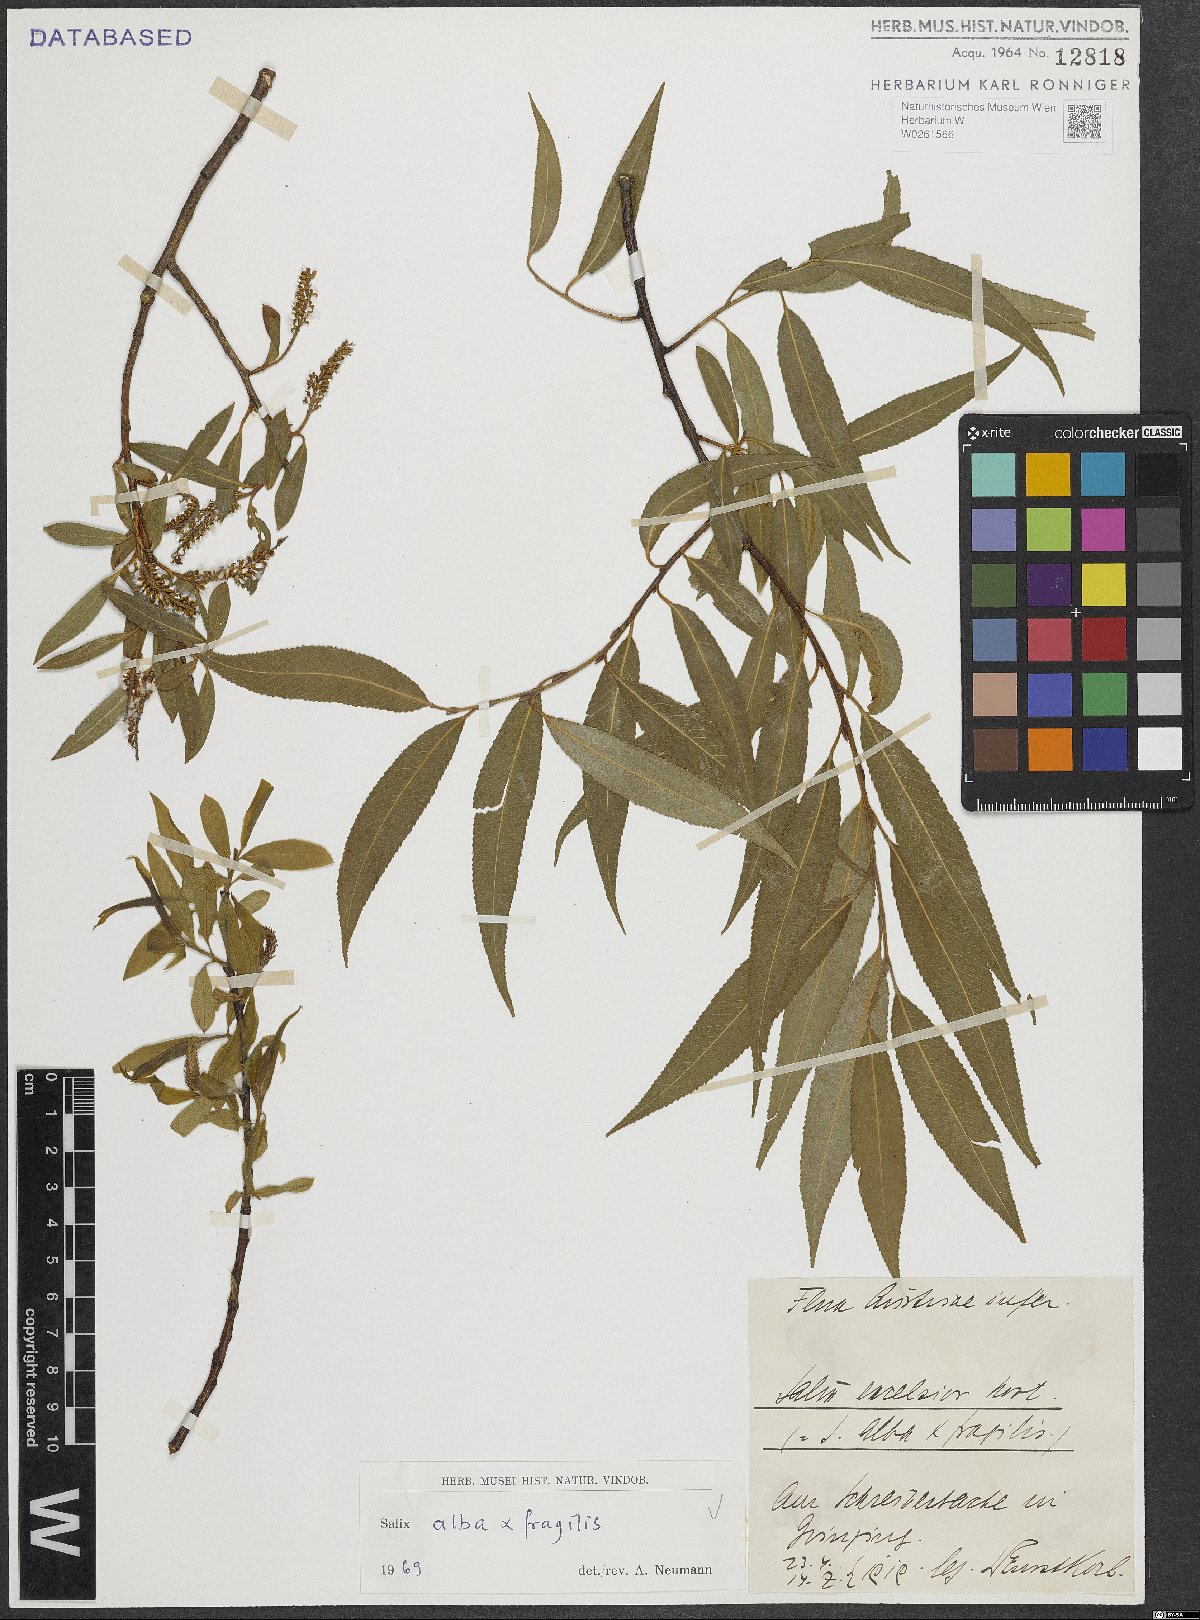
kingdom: Plantae
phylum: Tracheophyta
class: Magnoliopsida
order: Malpighiales
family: Salicaceae
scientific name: Salicaceae
